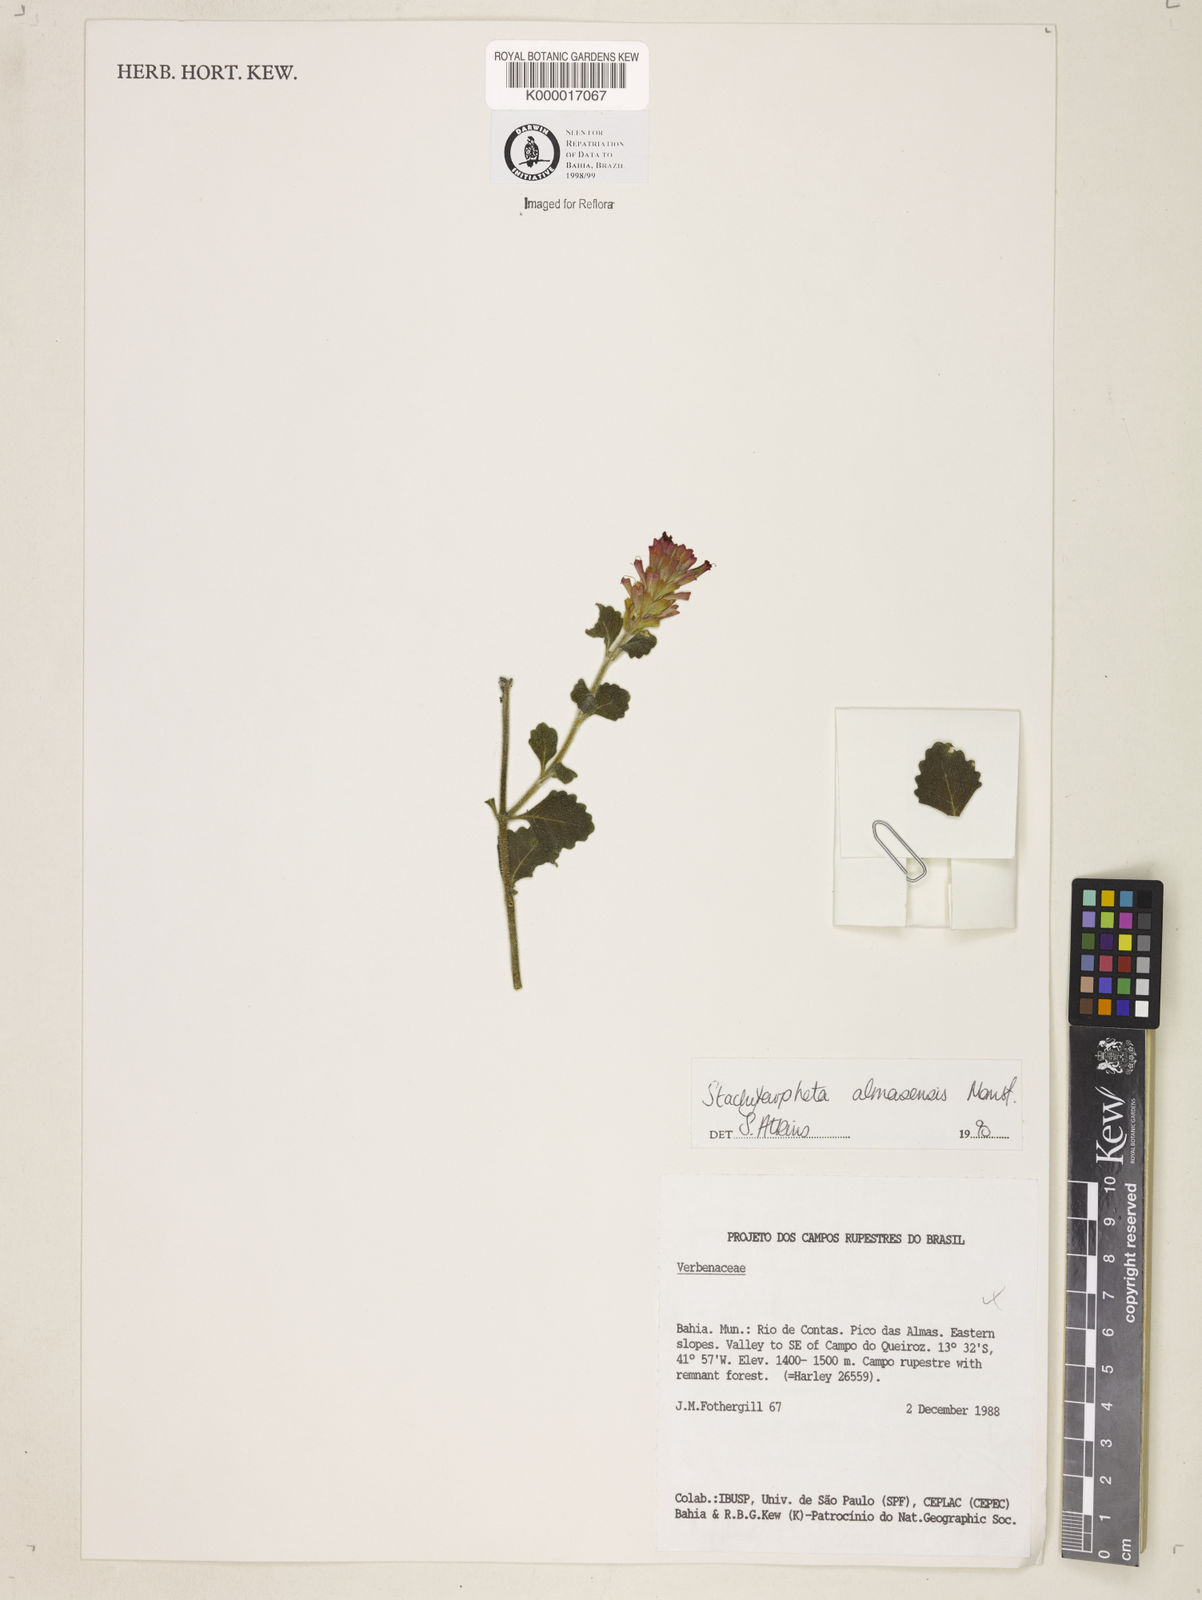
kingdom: Plantae
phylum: Tracheophyta
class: Magnoliopsida
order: Lamiales
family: Verbenaceae
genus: Stachytarpheta
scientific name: Stachytarpheta almasensis
